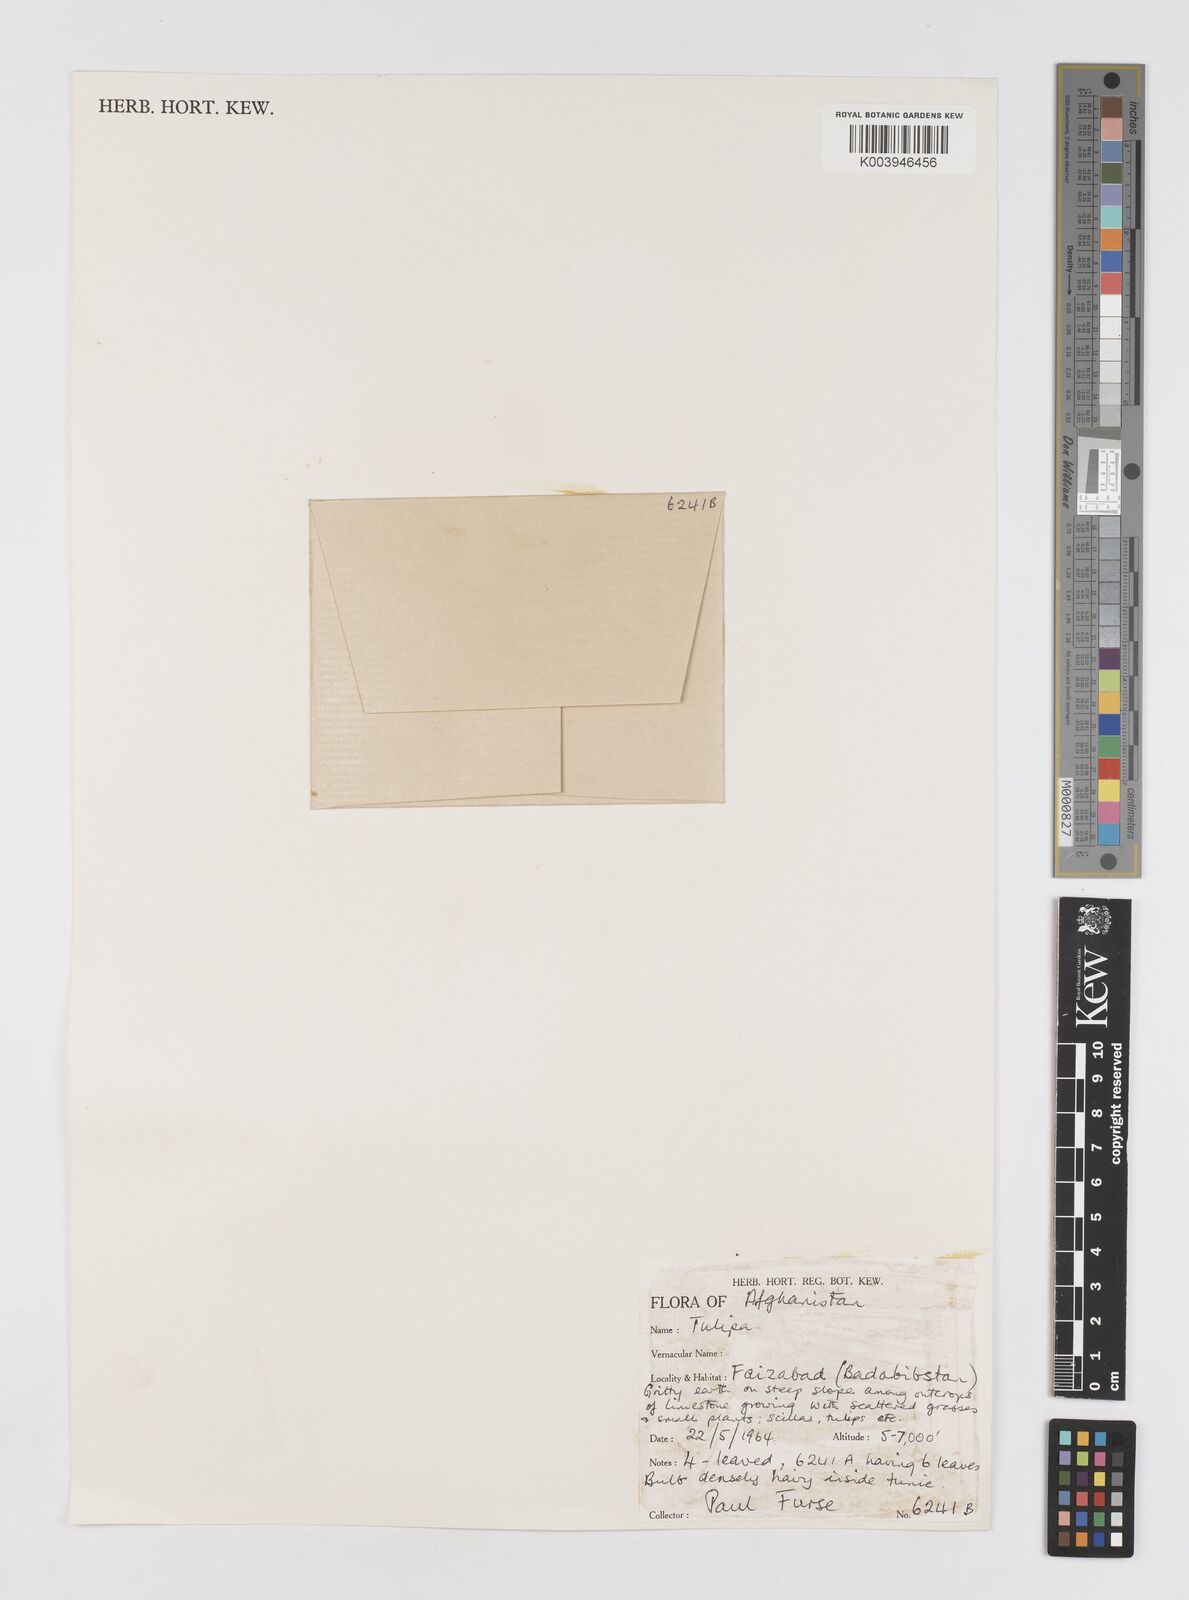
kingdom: Plantae
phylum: Tracheophyta
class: Liliopsida
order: Liliales
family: Liliaceae
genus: Tulipa
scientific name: Tulipa
